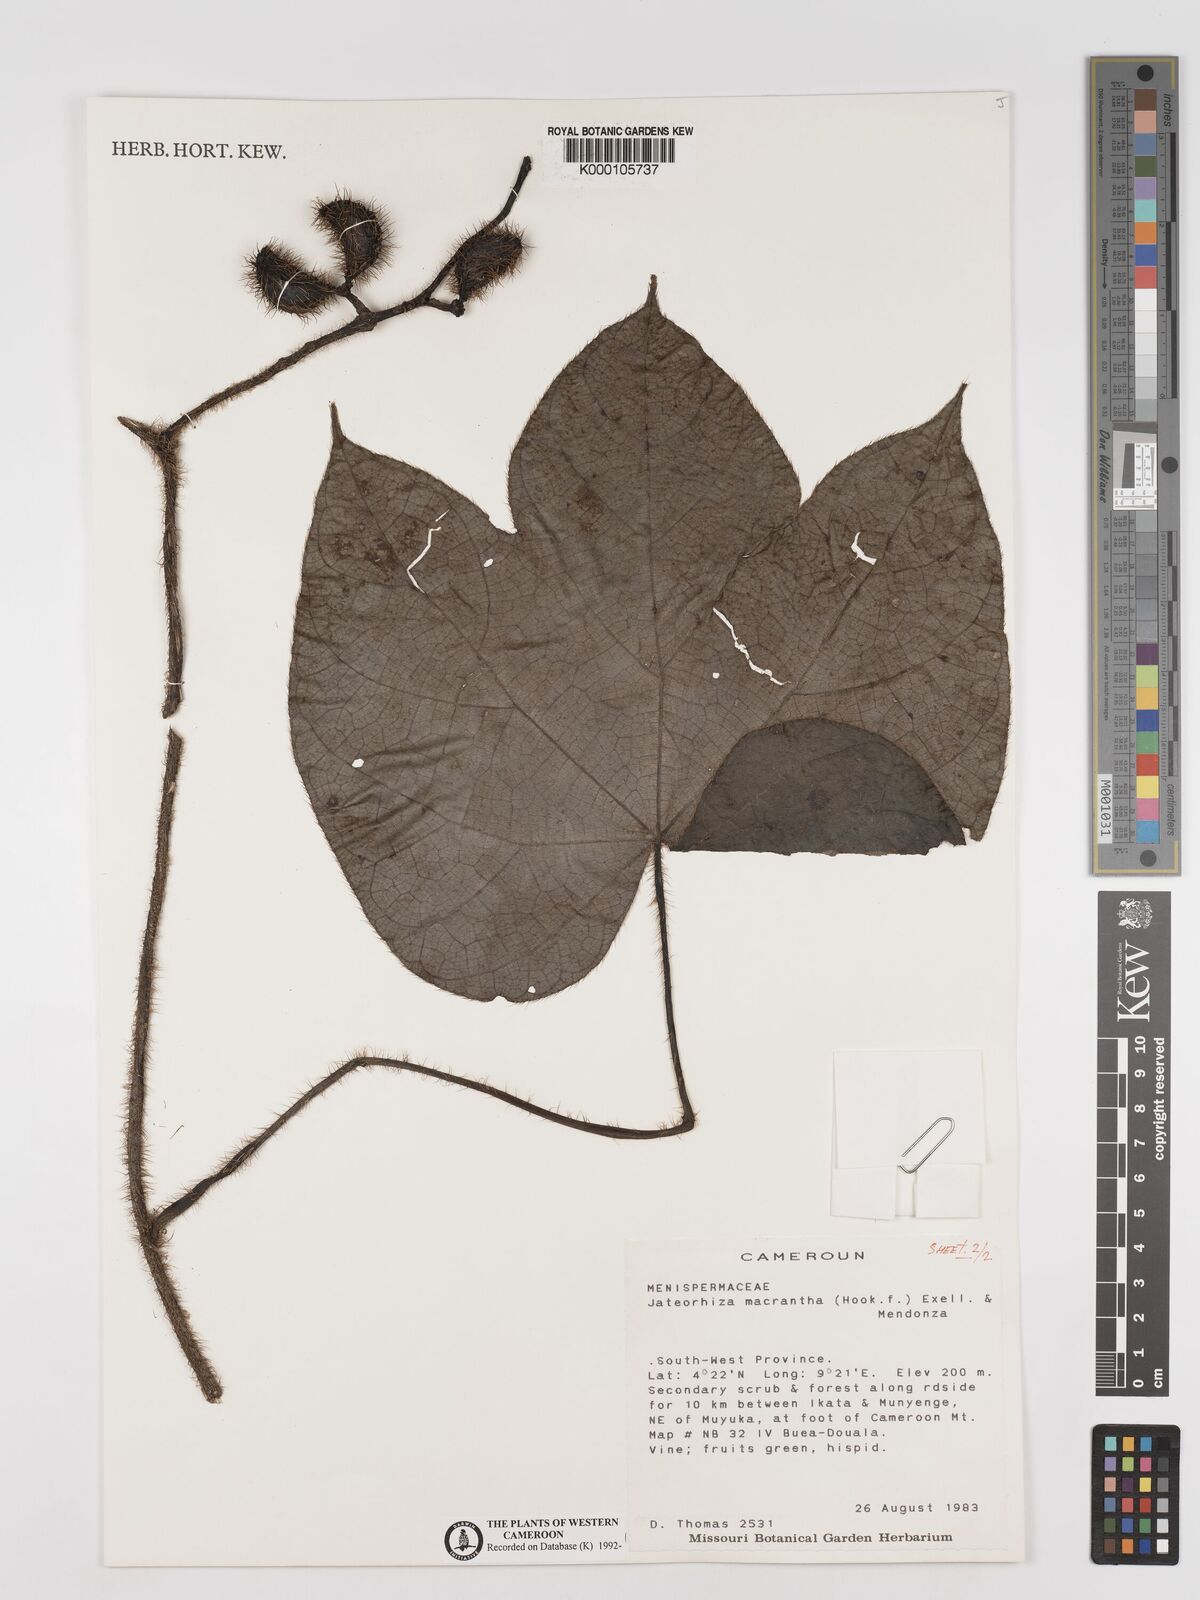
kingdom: Plantae
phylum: Tracheophyta
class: Magnoliopsida
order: Ranunculales
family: Menispermaceae
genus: Jateorhiza
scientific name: Jateorhiza
